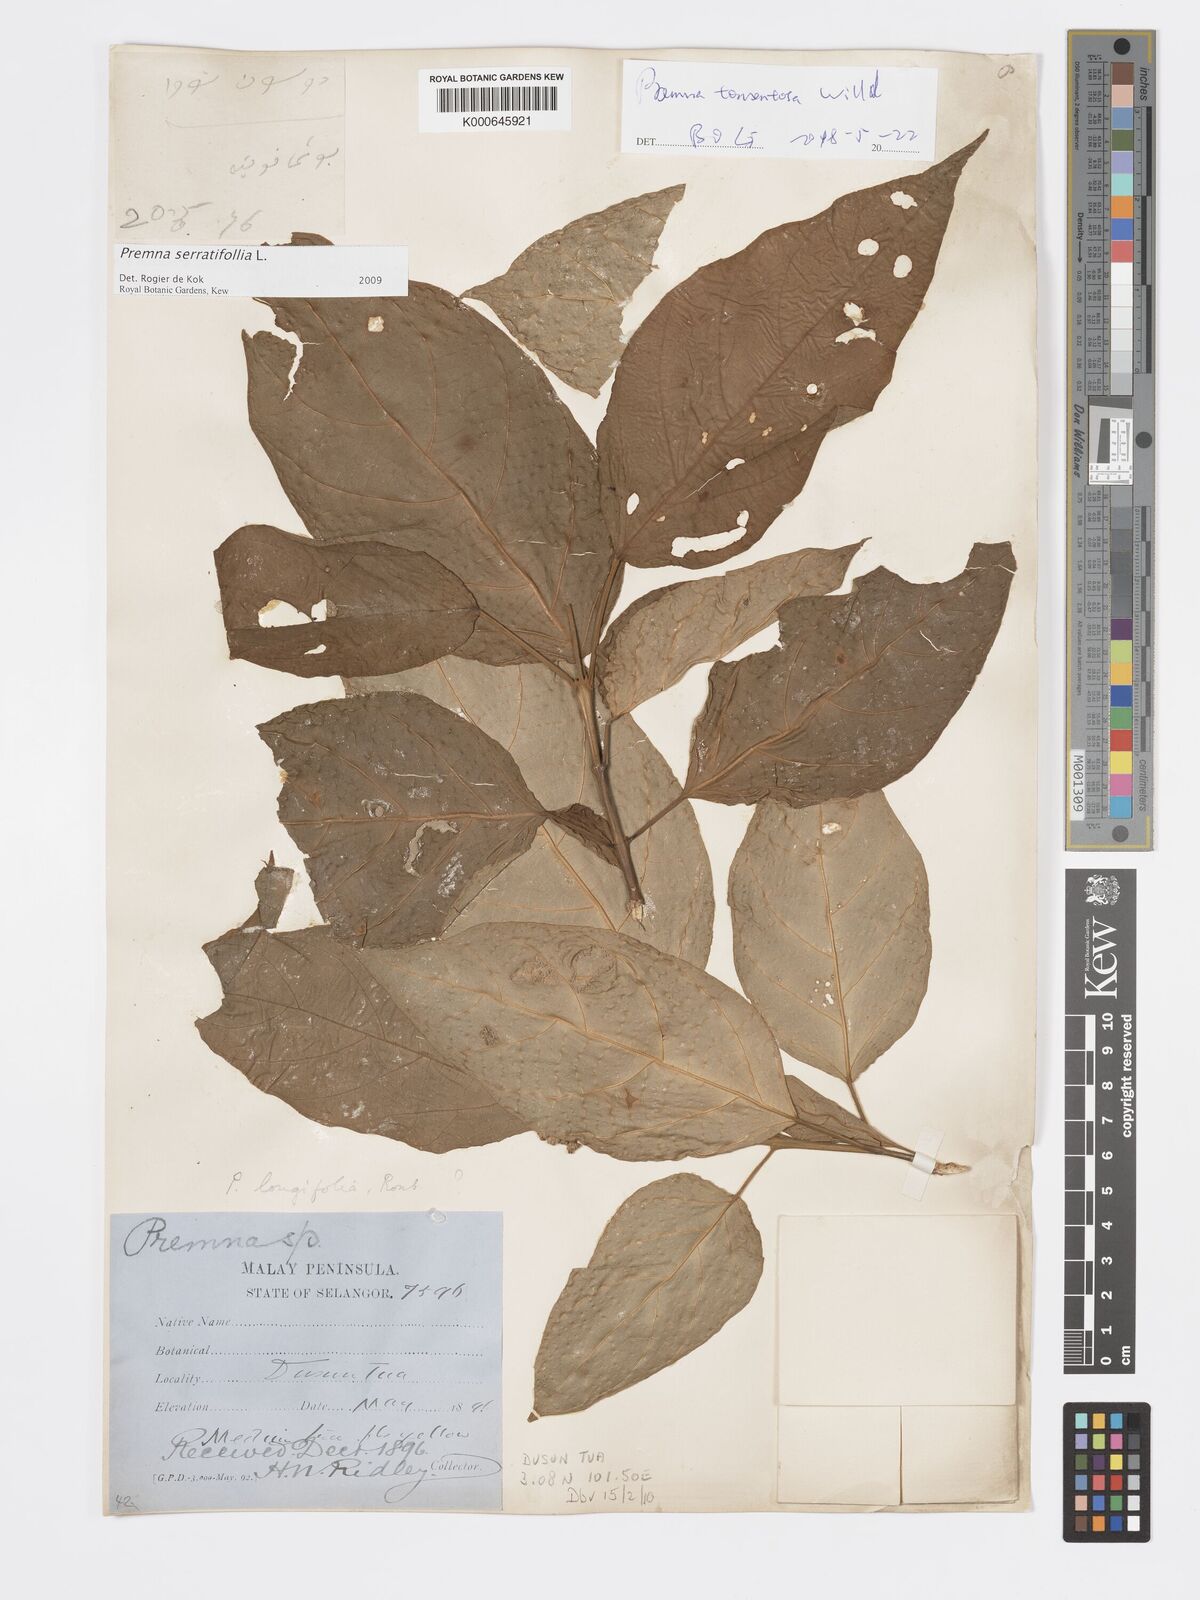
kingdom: Plantae
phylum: Tracheophyta
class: Magnoliopsida
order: Lamiales
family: Lamiaceae
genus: Premna
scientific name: Premna serratifolia
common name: Bastard guelder
